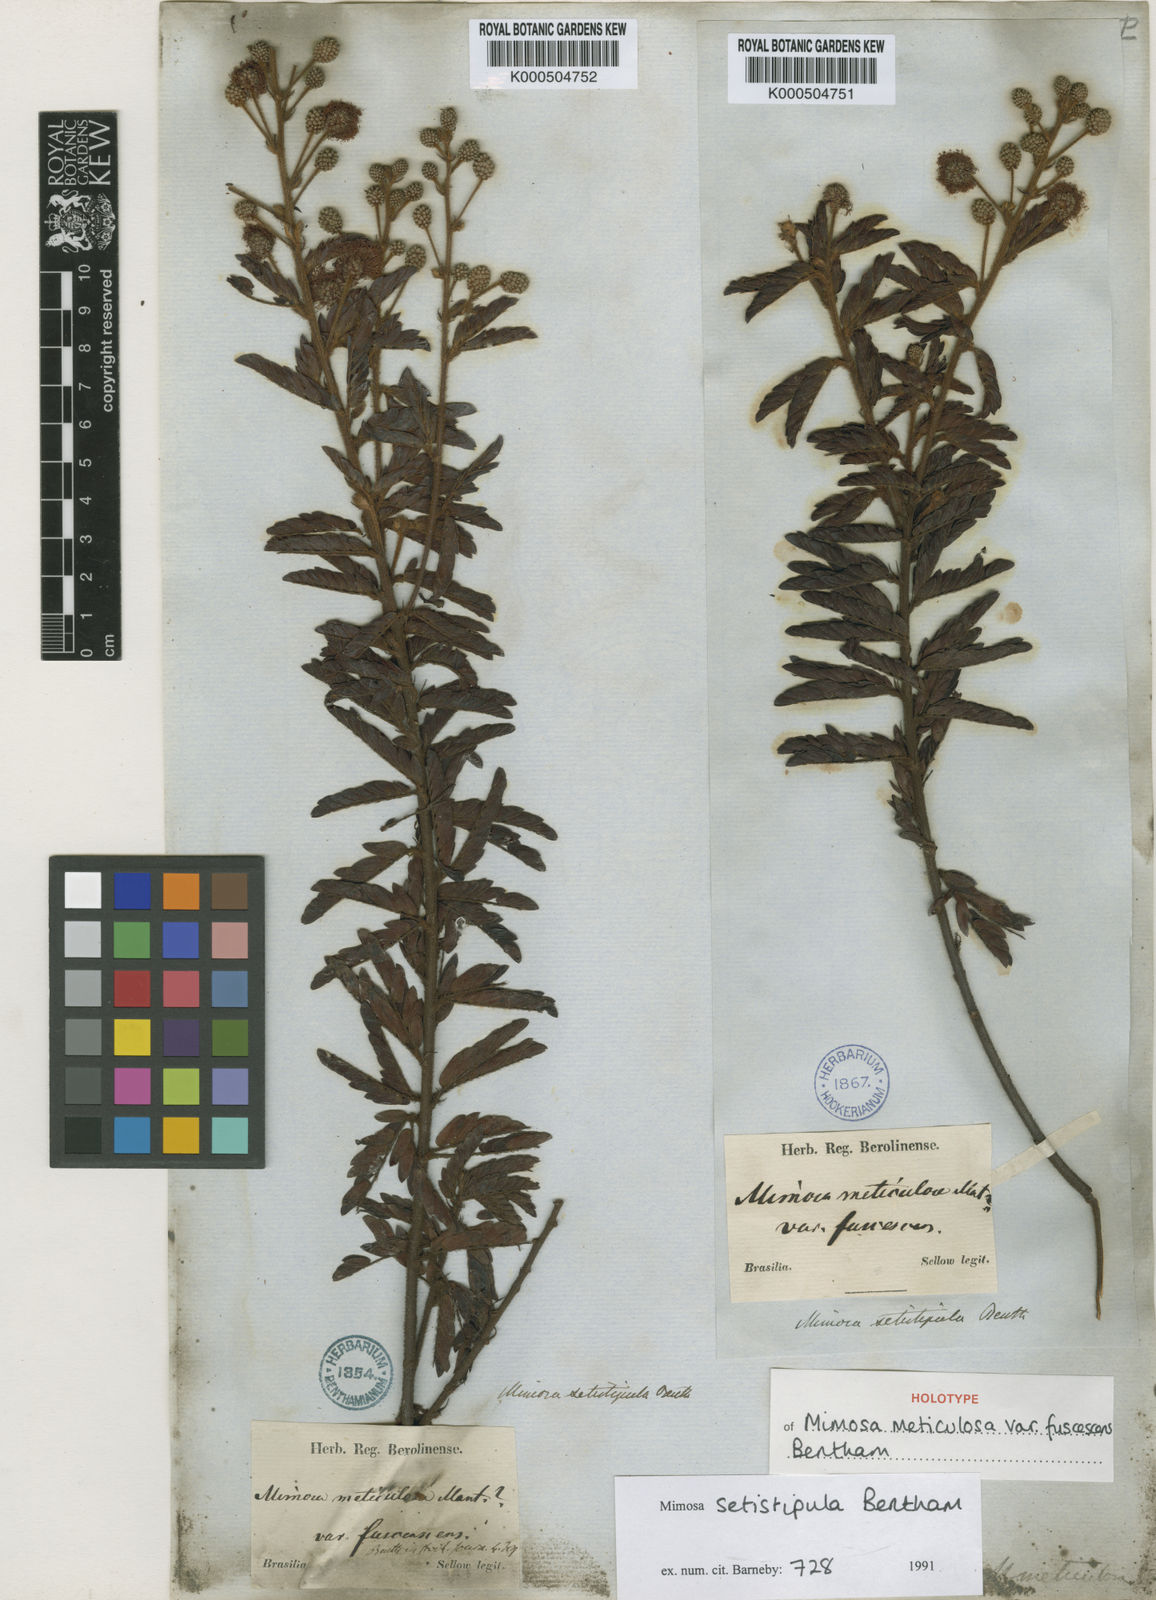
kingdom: Plantae
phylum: Tracheophyta
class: Magnoliopsida
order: Fabales
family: Fabaceae
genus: Mimosa
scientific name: Mimosa setistipula
